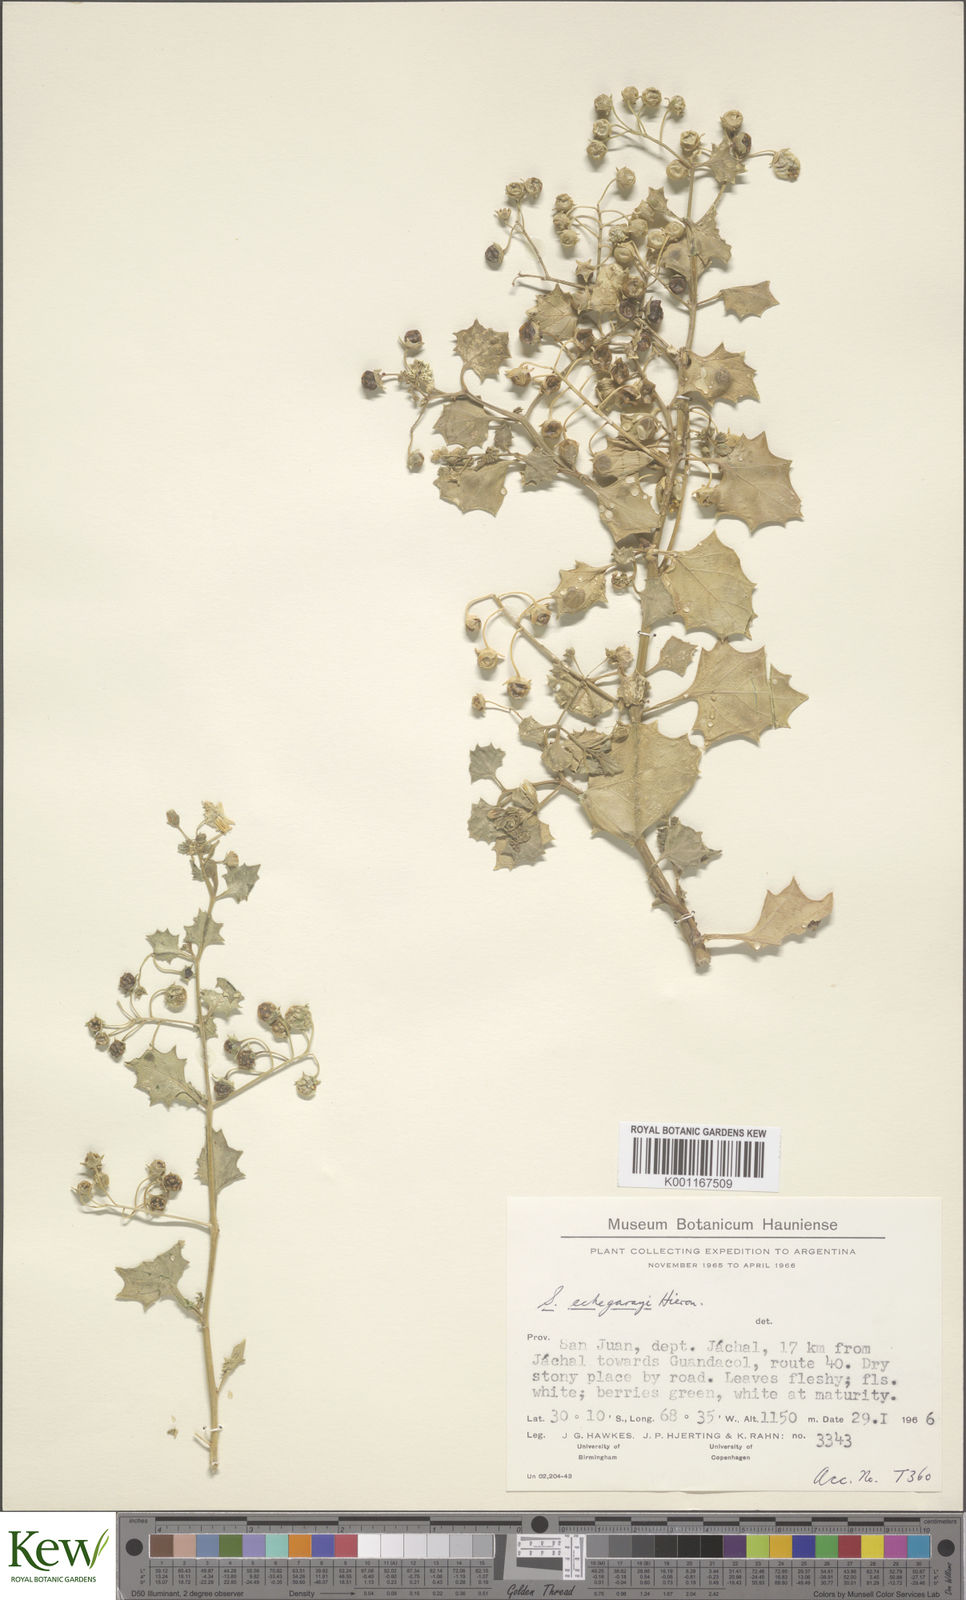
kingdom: Plantae
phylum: Tracheophyta
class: Magnoliopsida
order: Solanales
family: Solanaceae
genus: Solanum
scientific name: Solanum echegarayi
